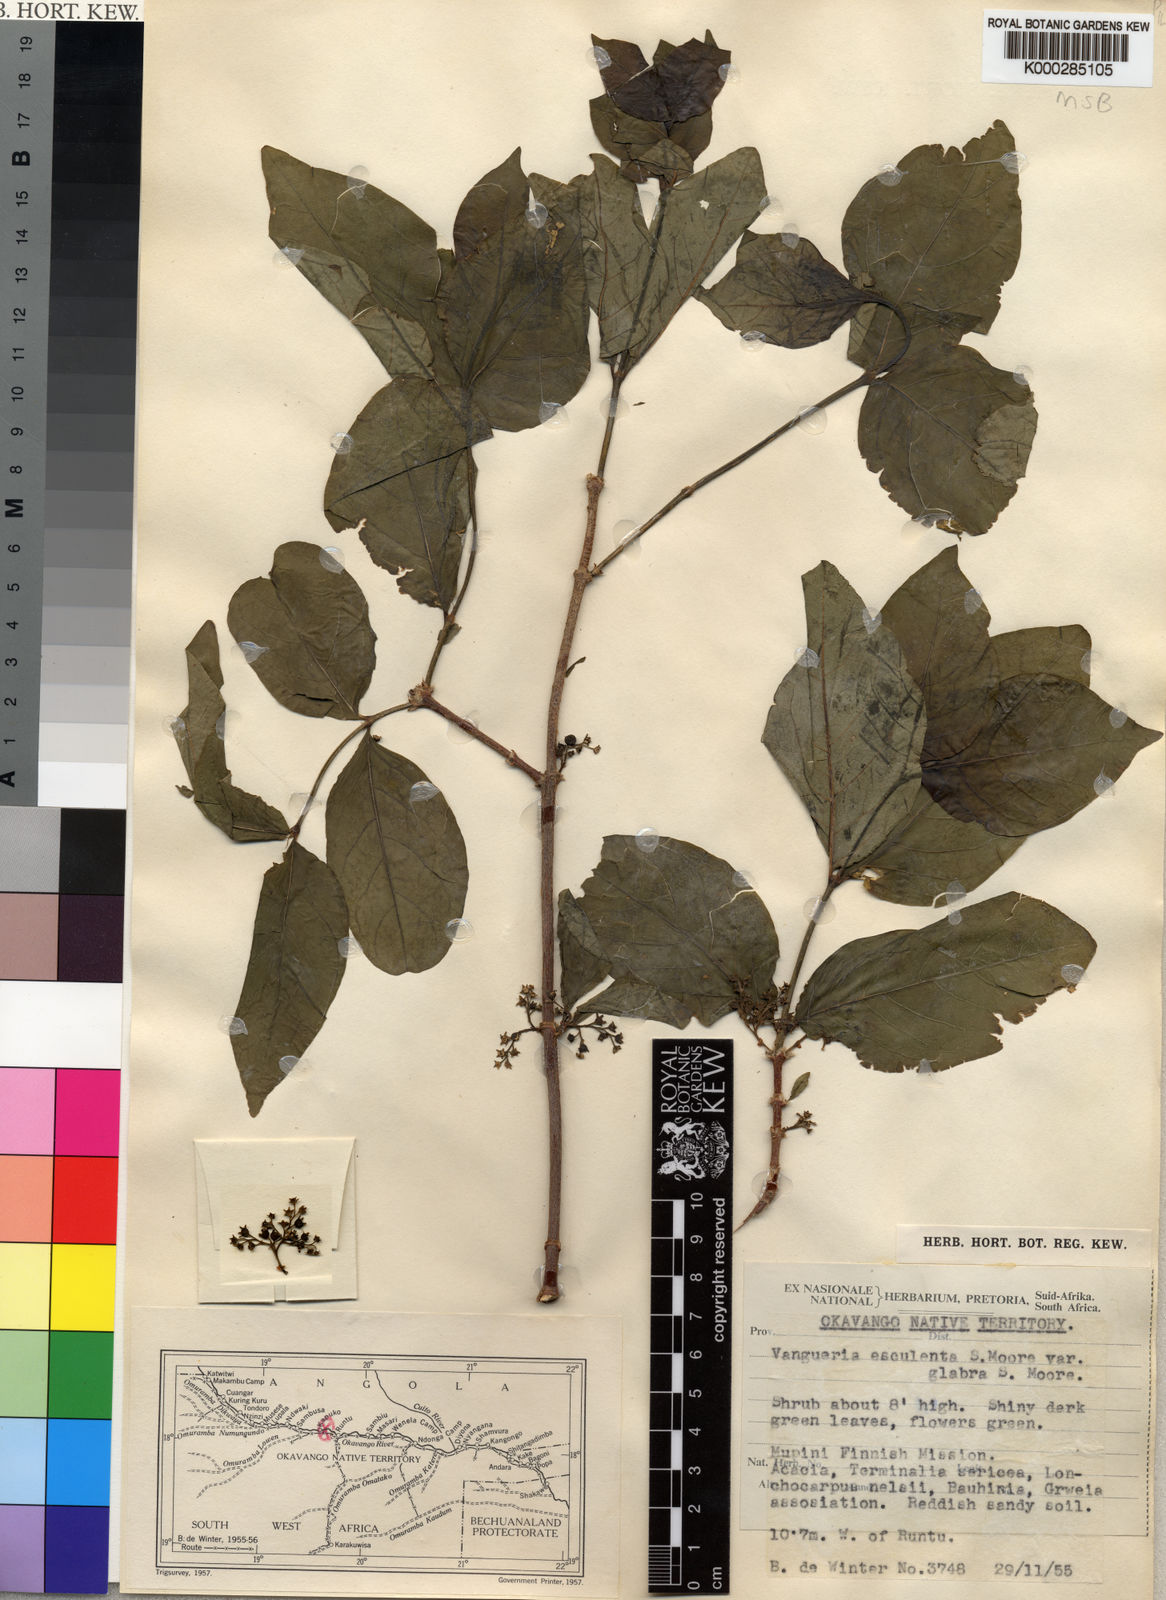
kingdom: Plantae
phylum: Tracheophyta
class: Magnoliopsida
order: Gentianales
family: Rubiaceae
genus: Vangueria
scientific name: Vangueria cyanescens
